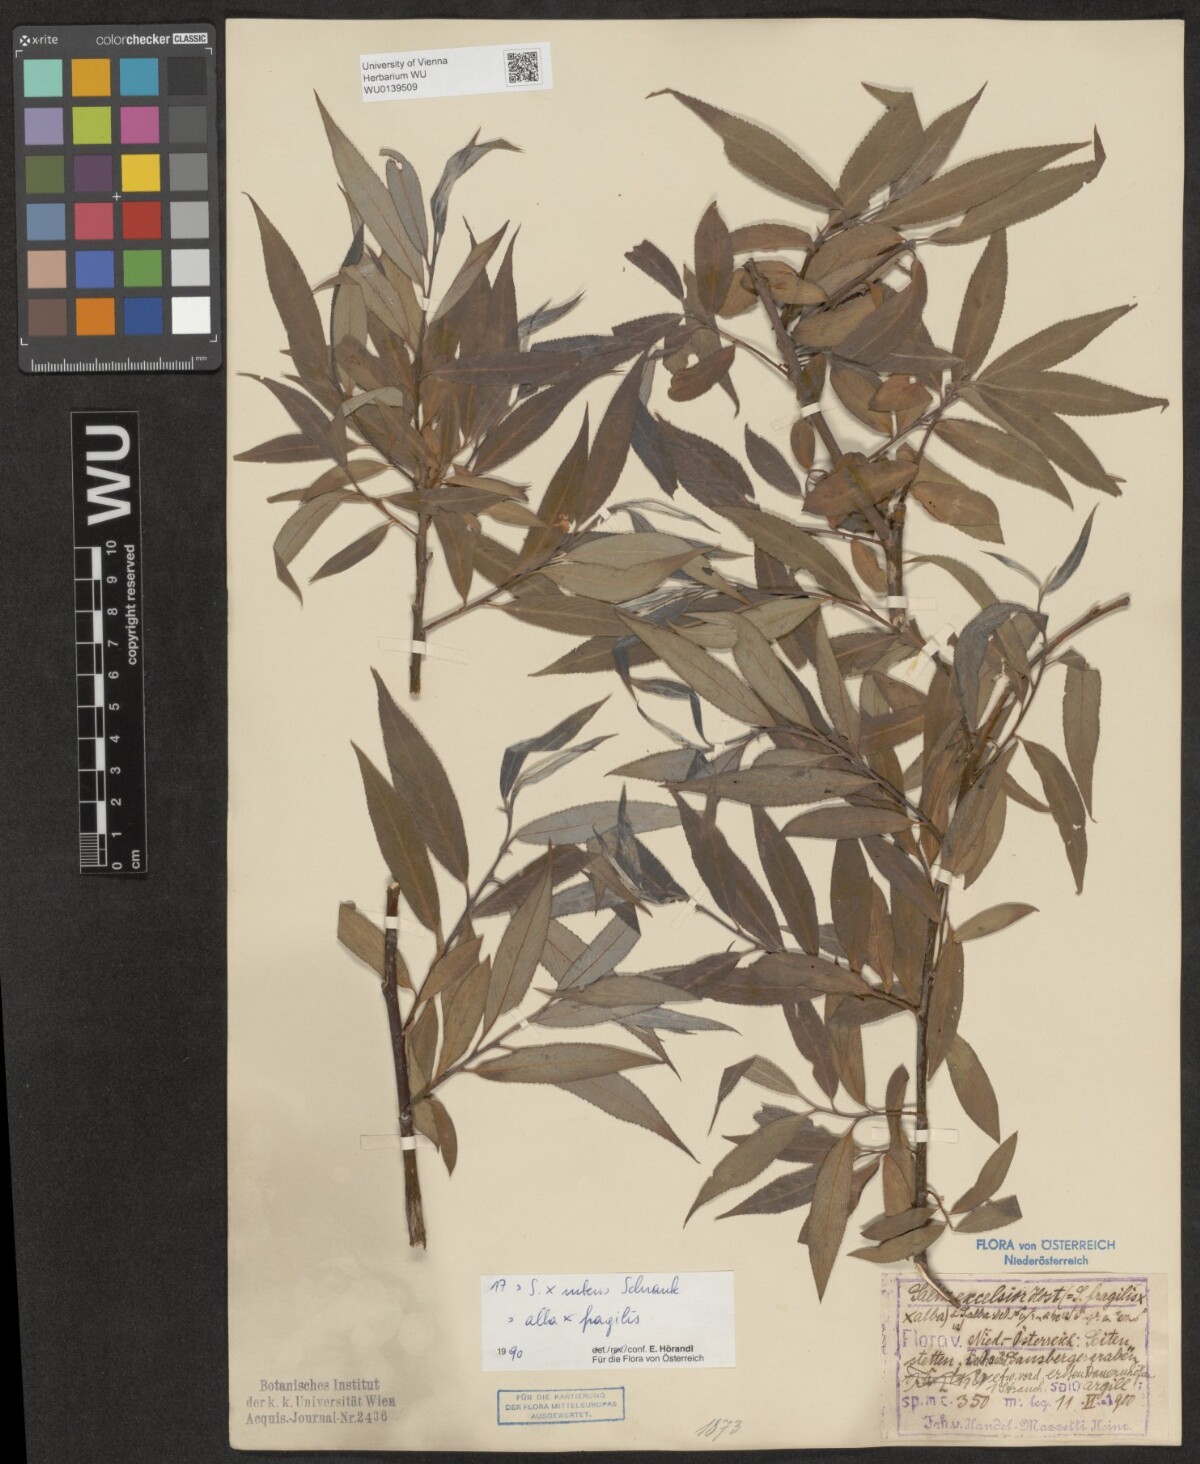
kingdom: Plantae
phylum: Tracheophyta
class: Magnoliopsida
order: Malpighiales
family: Salicaceae
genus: Salix
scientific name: Salix rubens
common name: Hybrid crack willow
